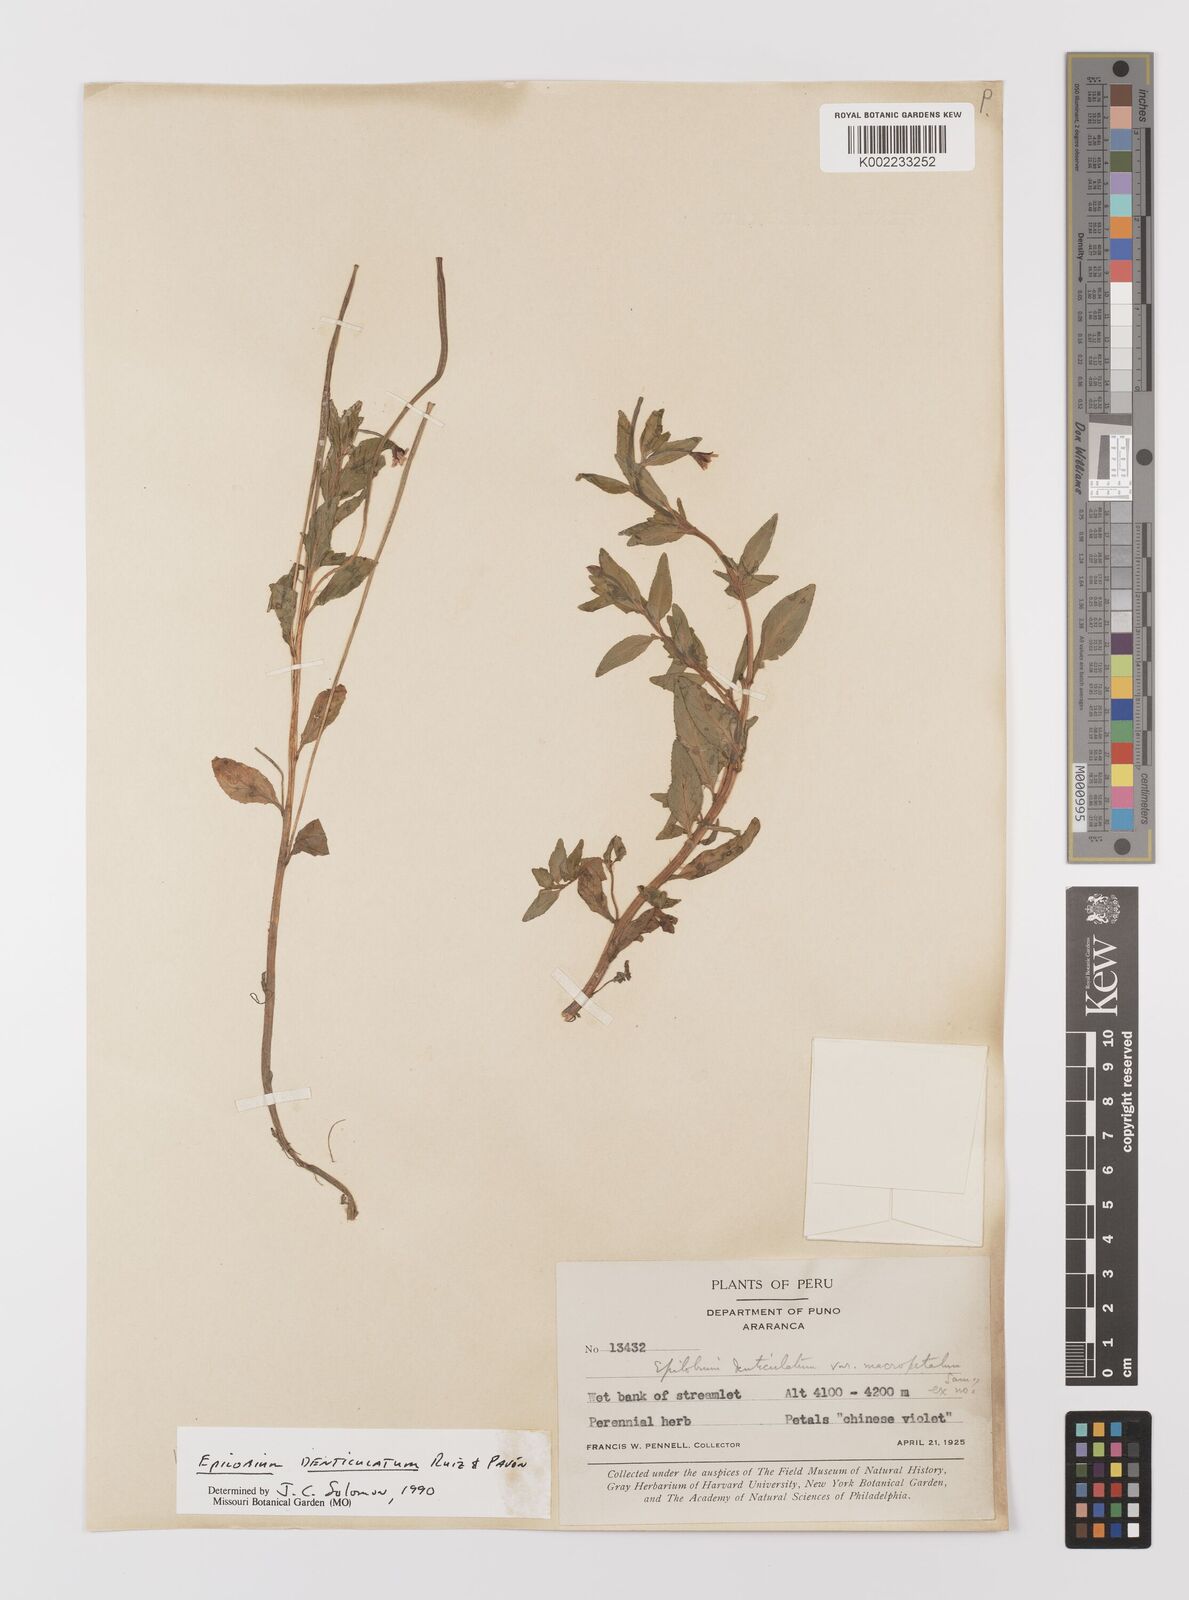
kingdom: Plantae
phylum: Tracheophyta
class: Magnoliopsida
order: Myrtales
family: Onagraceae
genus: Epilobium
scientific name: Epilobium denticulatum
